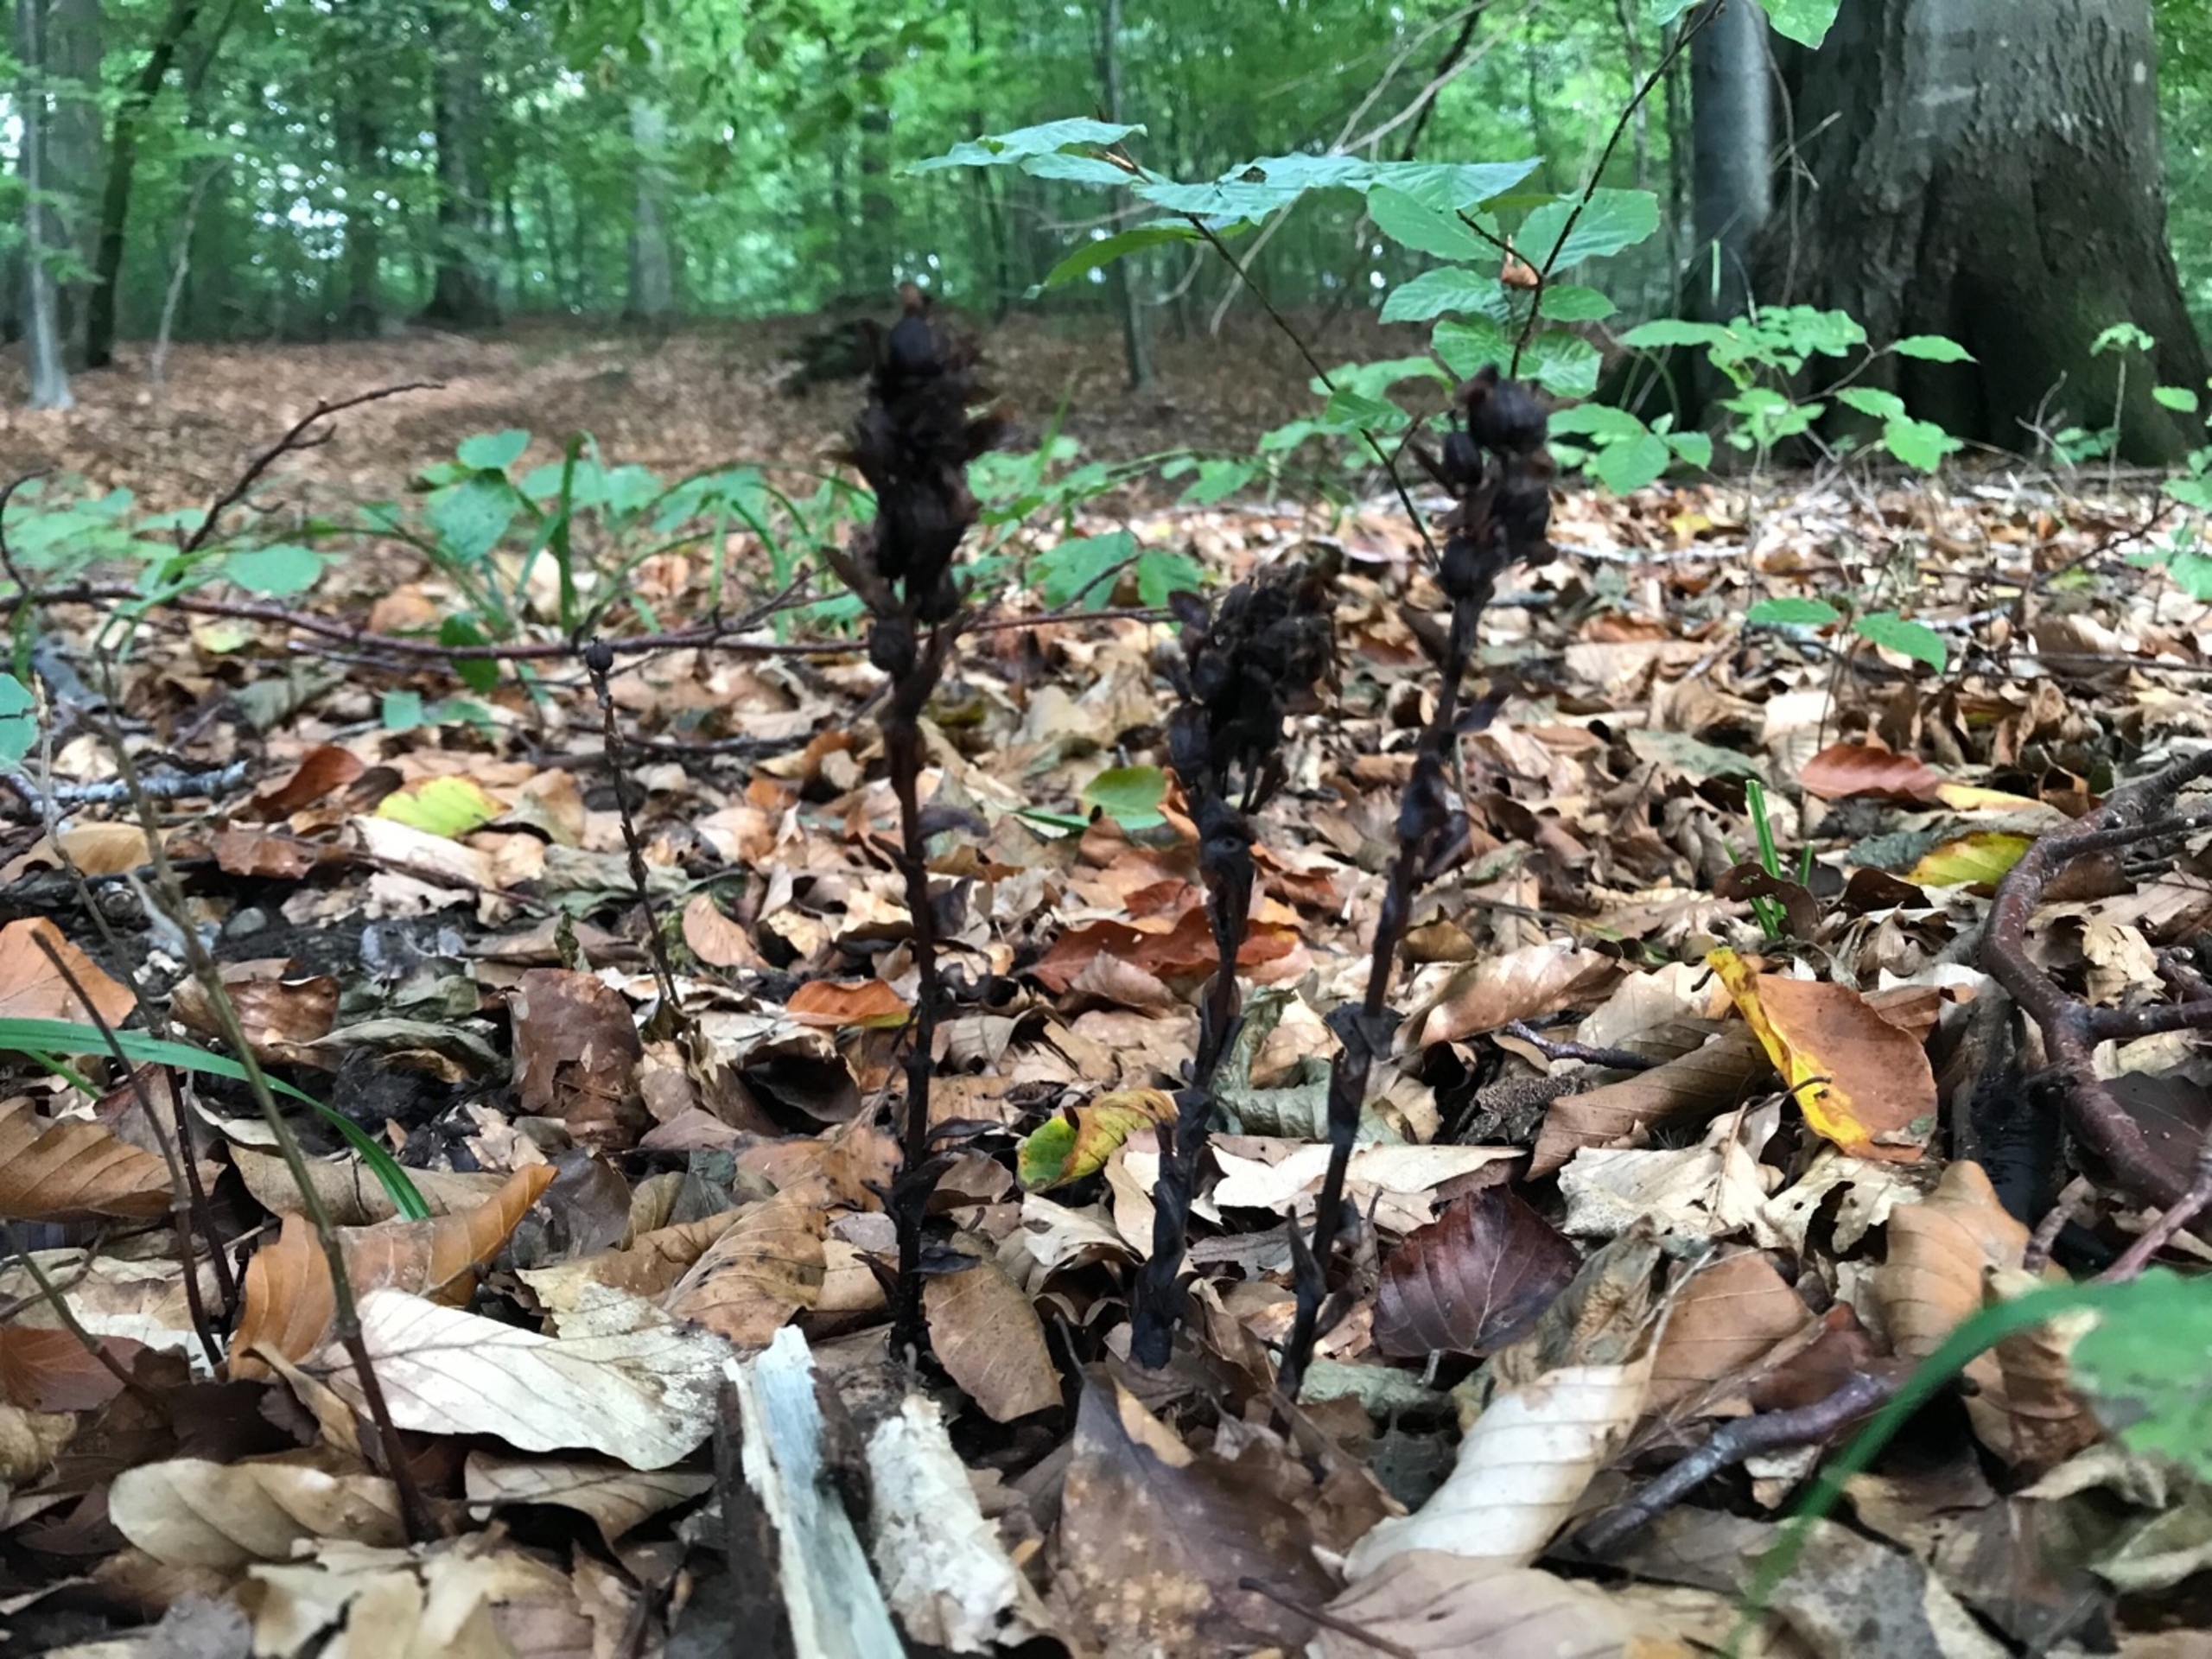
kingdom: Plantae
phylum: Tracheophyta
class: Magnoliopsida
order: Ericales
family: Ericaceae
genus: Hypopitys
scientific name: Hypopitys monotropa
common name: Snylterod
